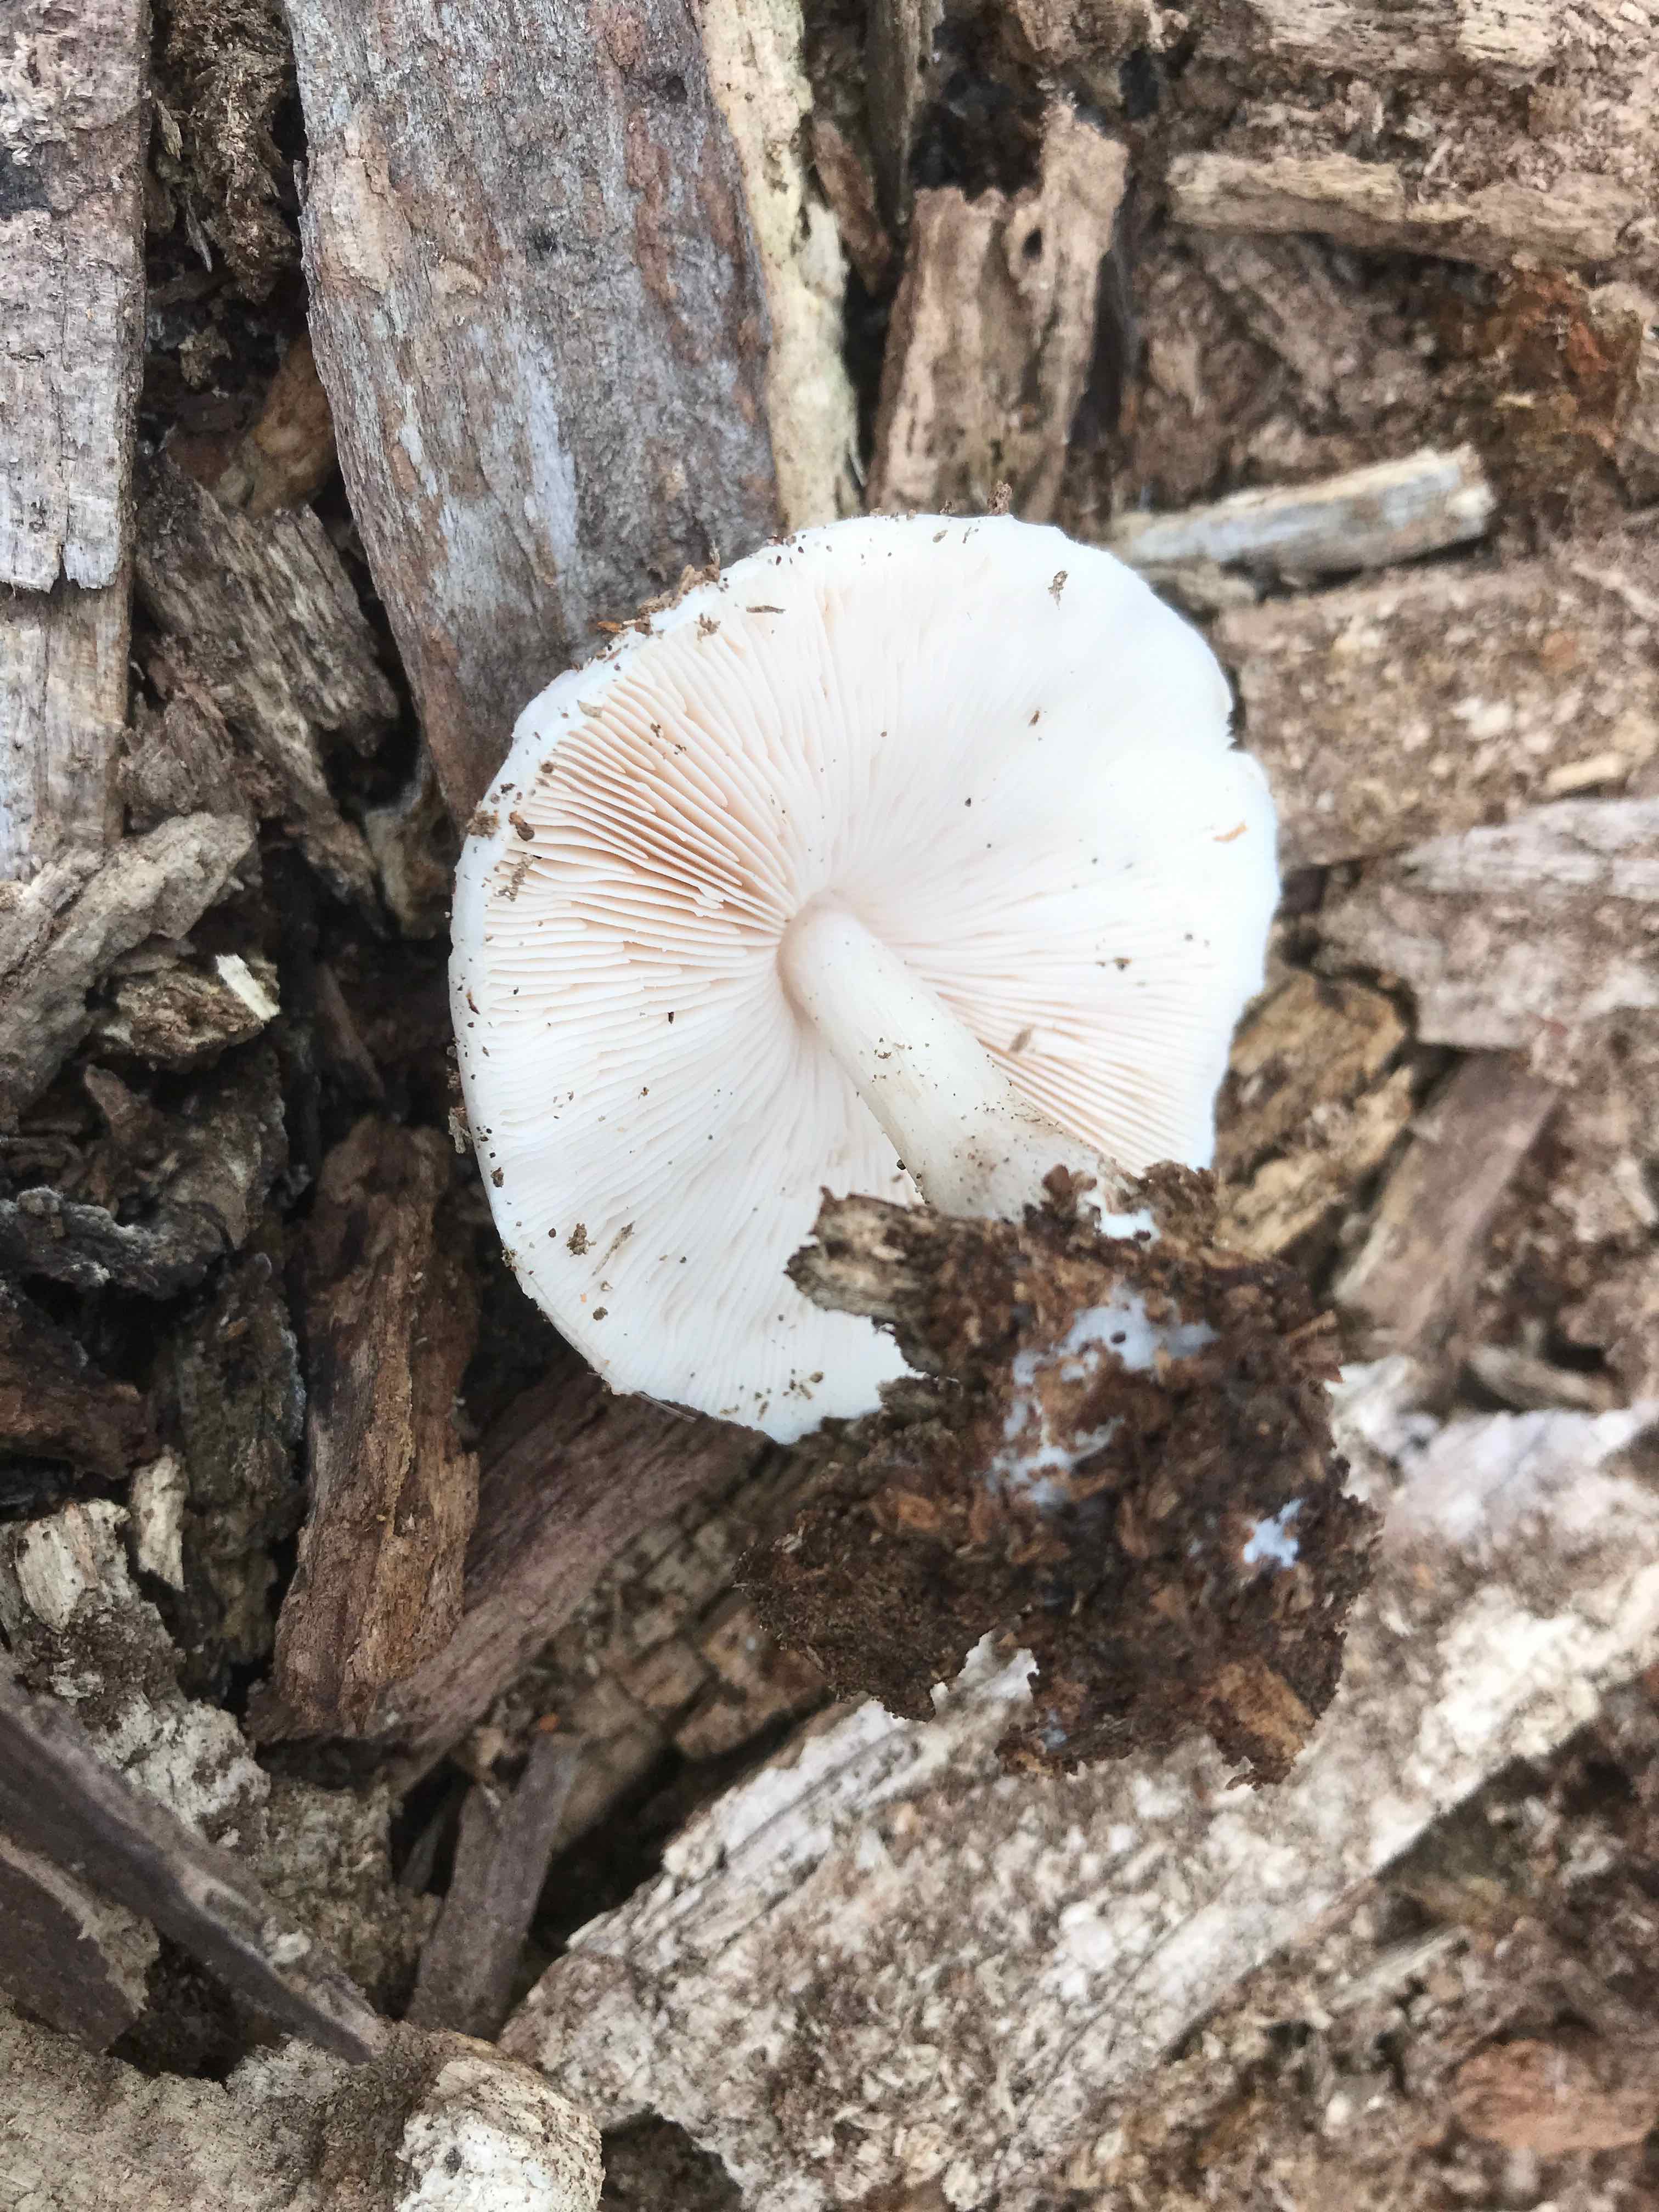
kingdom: Fungi
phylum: Basidiomycota
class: Agaricomycetes
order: Agaricales
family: Pluteaceae
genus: Pluteus
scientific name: Pluteus petasatus
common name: savsmulds-skærmhat
